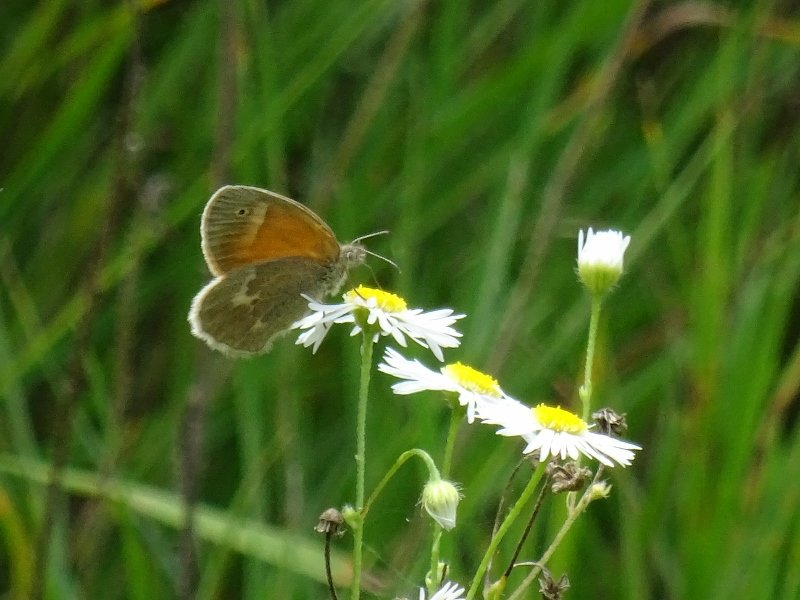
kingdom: Animalia
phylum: Arthropoda
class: Insecta
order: Lepidoptera
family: Nymphalidae
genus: Coenonympha
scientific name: Coenonympha tullia
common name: Large Heath
